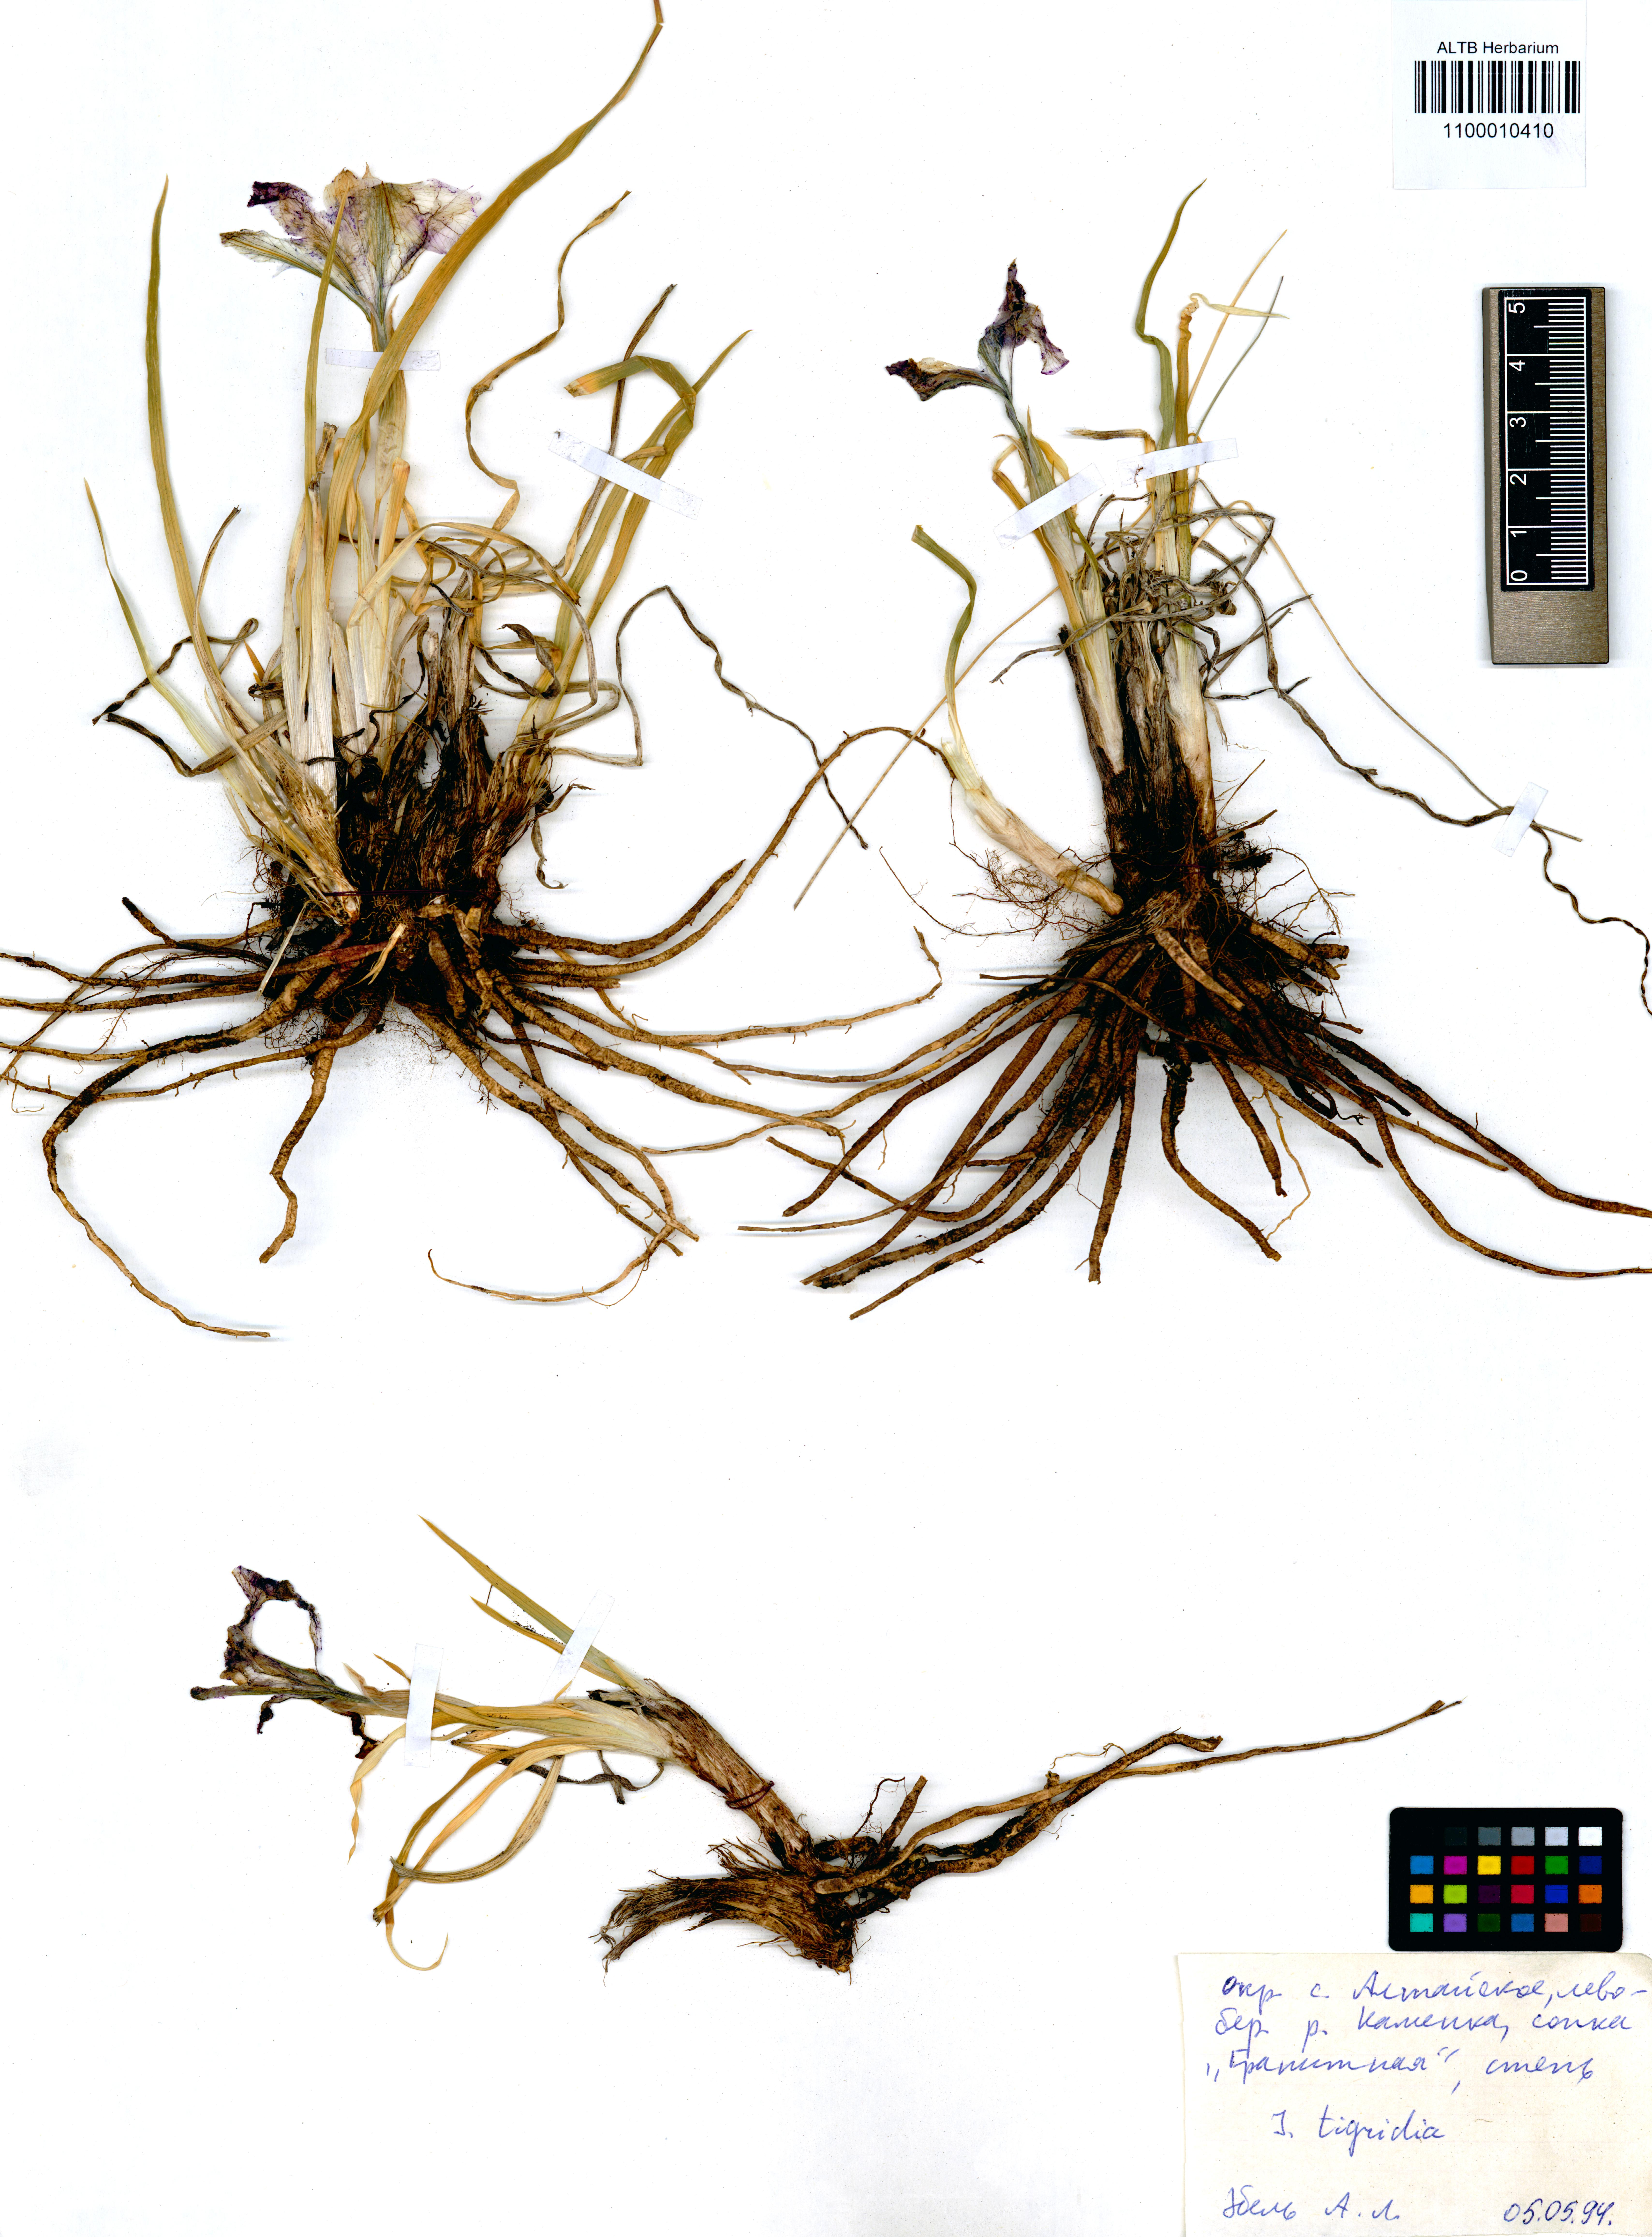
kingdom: Plantae
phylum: Tracheophyta
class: Liliopsida
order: Asparagales
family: Iridaceae
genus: Iris
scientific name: Iris tigridia
